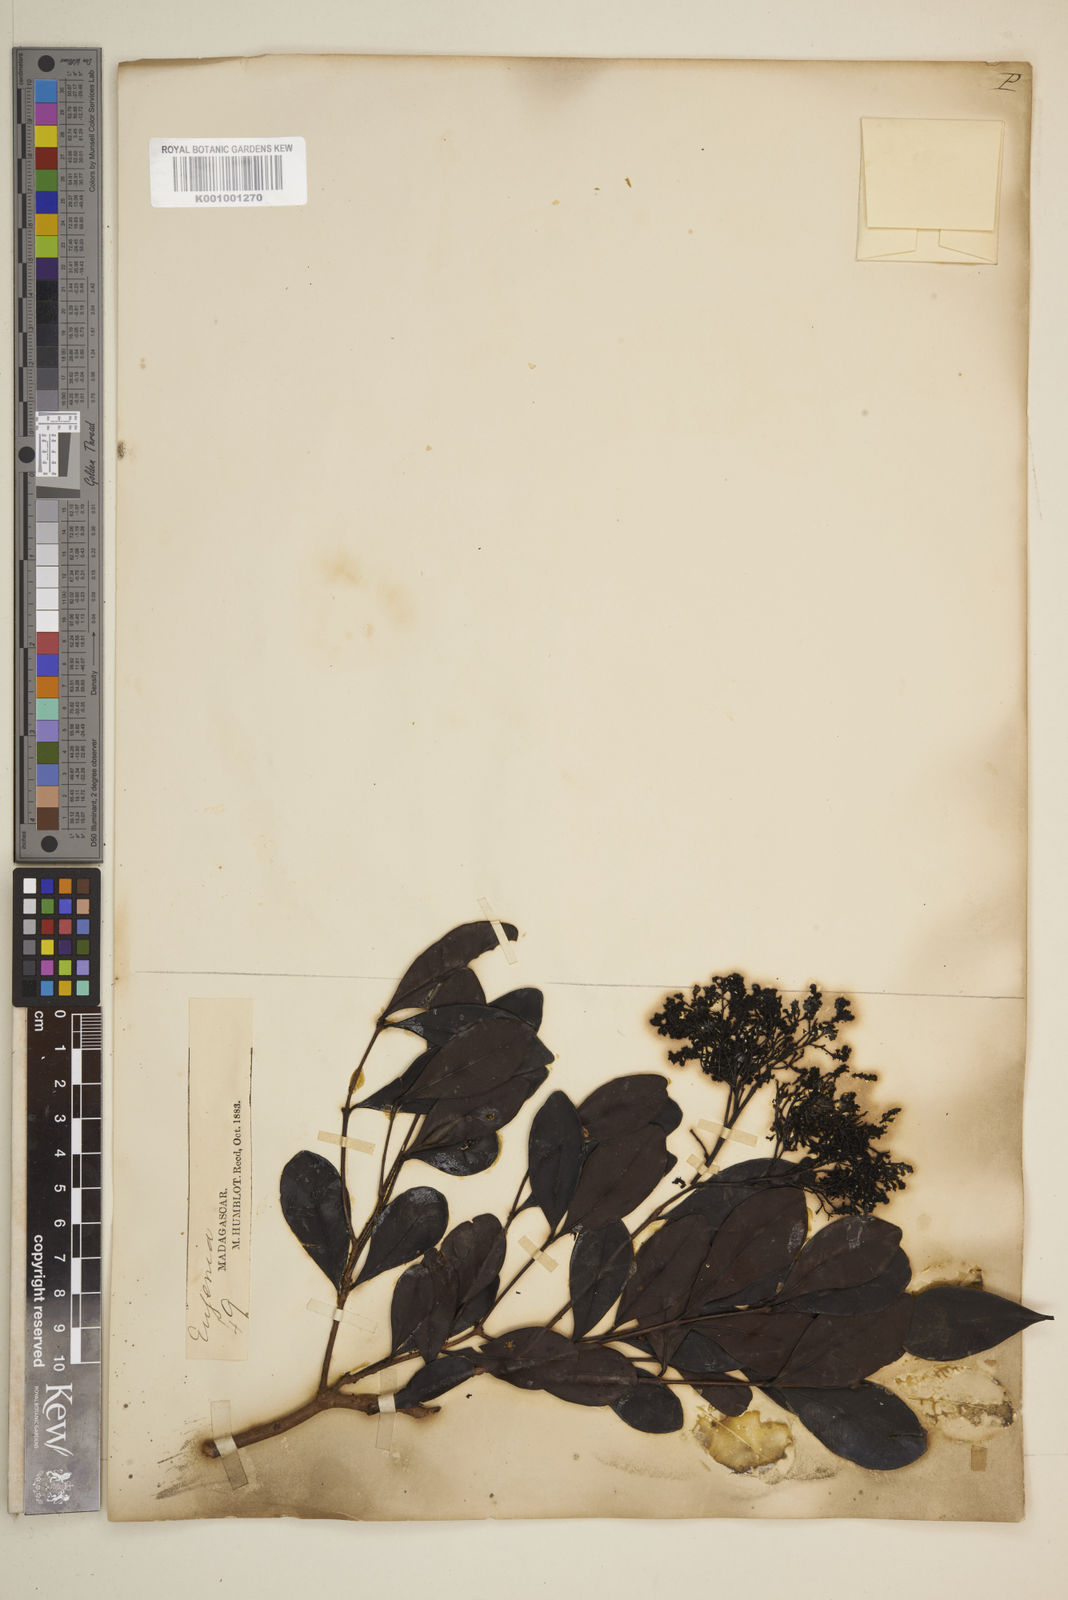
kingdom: Plantae
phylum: Tracheophyta
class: Magnoliopsida
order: Myrtales
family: Myrtaceae
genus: Eugenia
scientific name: Eugenia analamerensis
